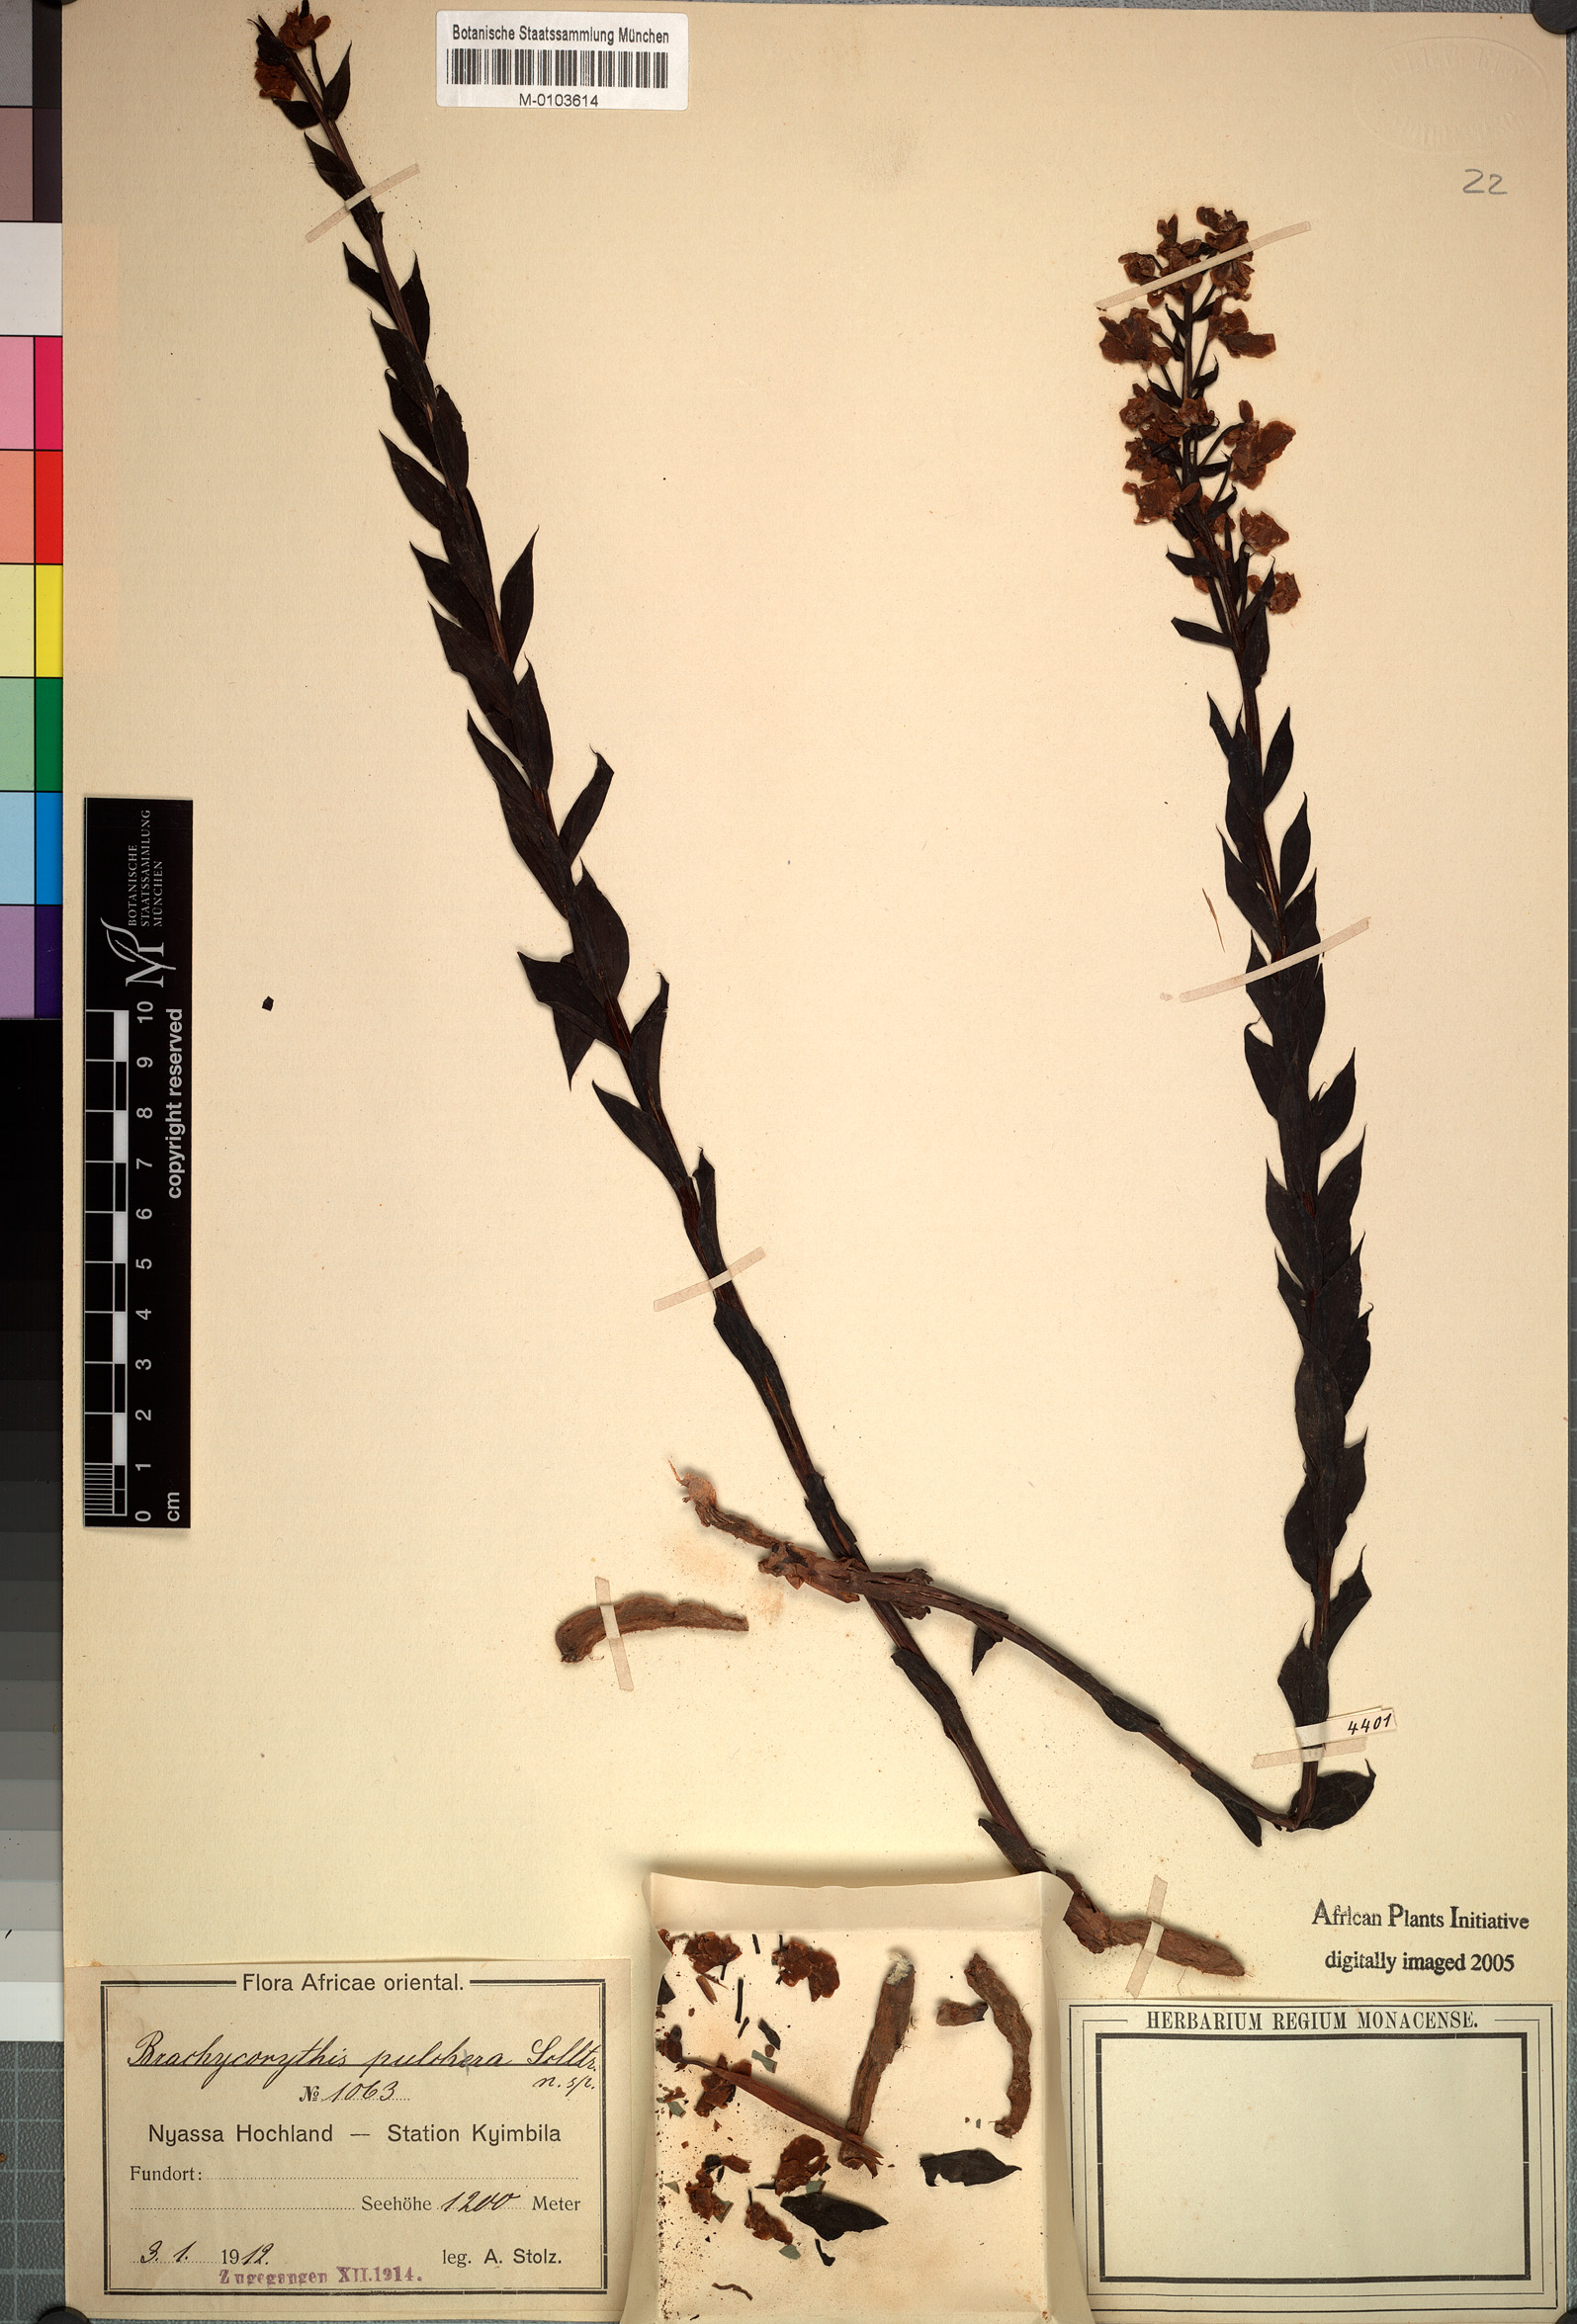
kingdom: Plantae
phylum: Tracheophyta
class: Liliopsida
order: Asparagales
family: Orchidaceae
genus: Brachycorythis
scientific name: Brachycorythis pleistophylla
